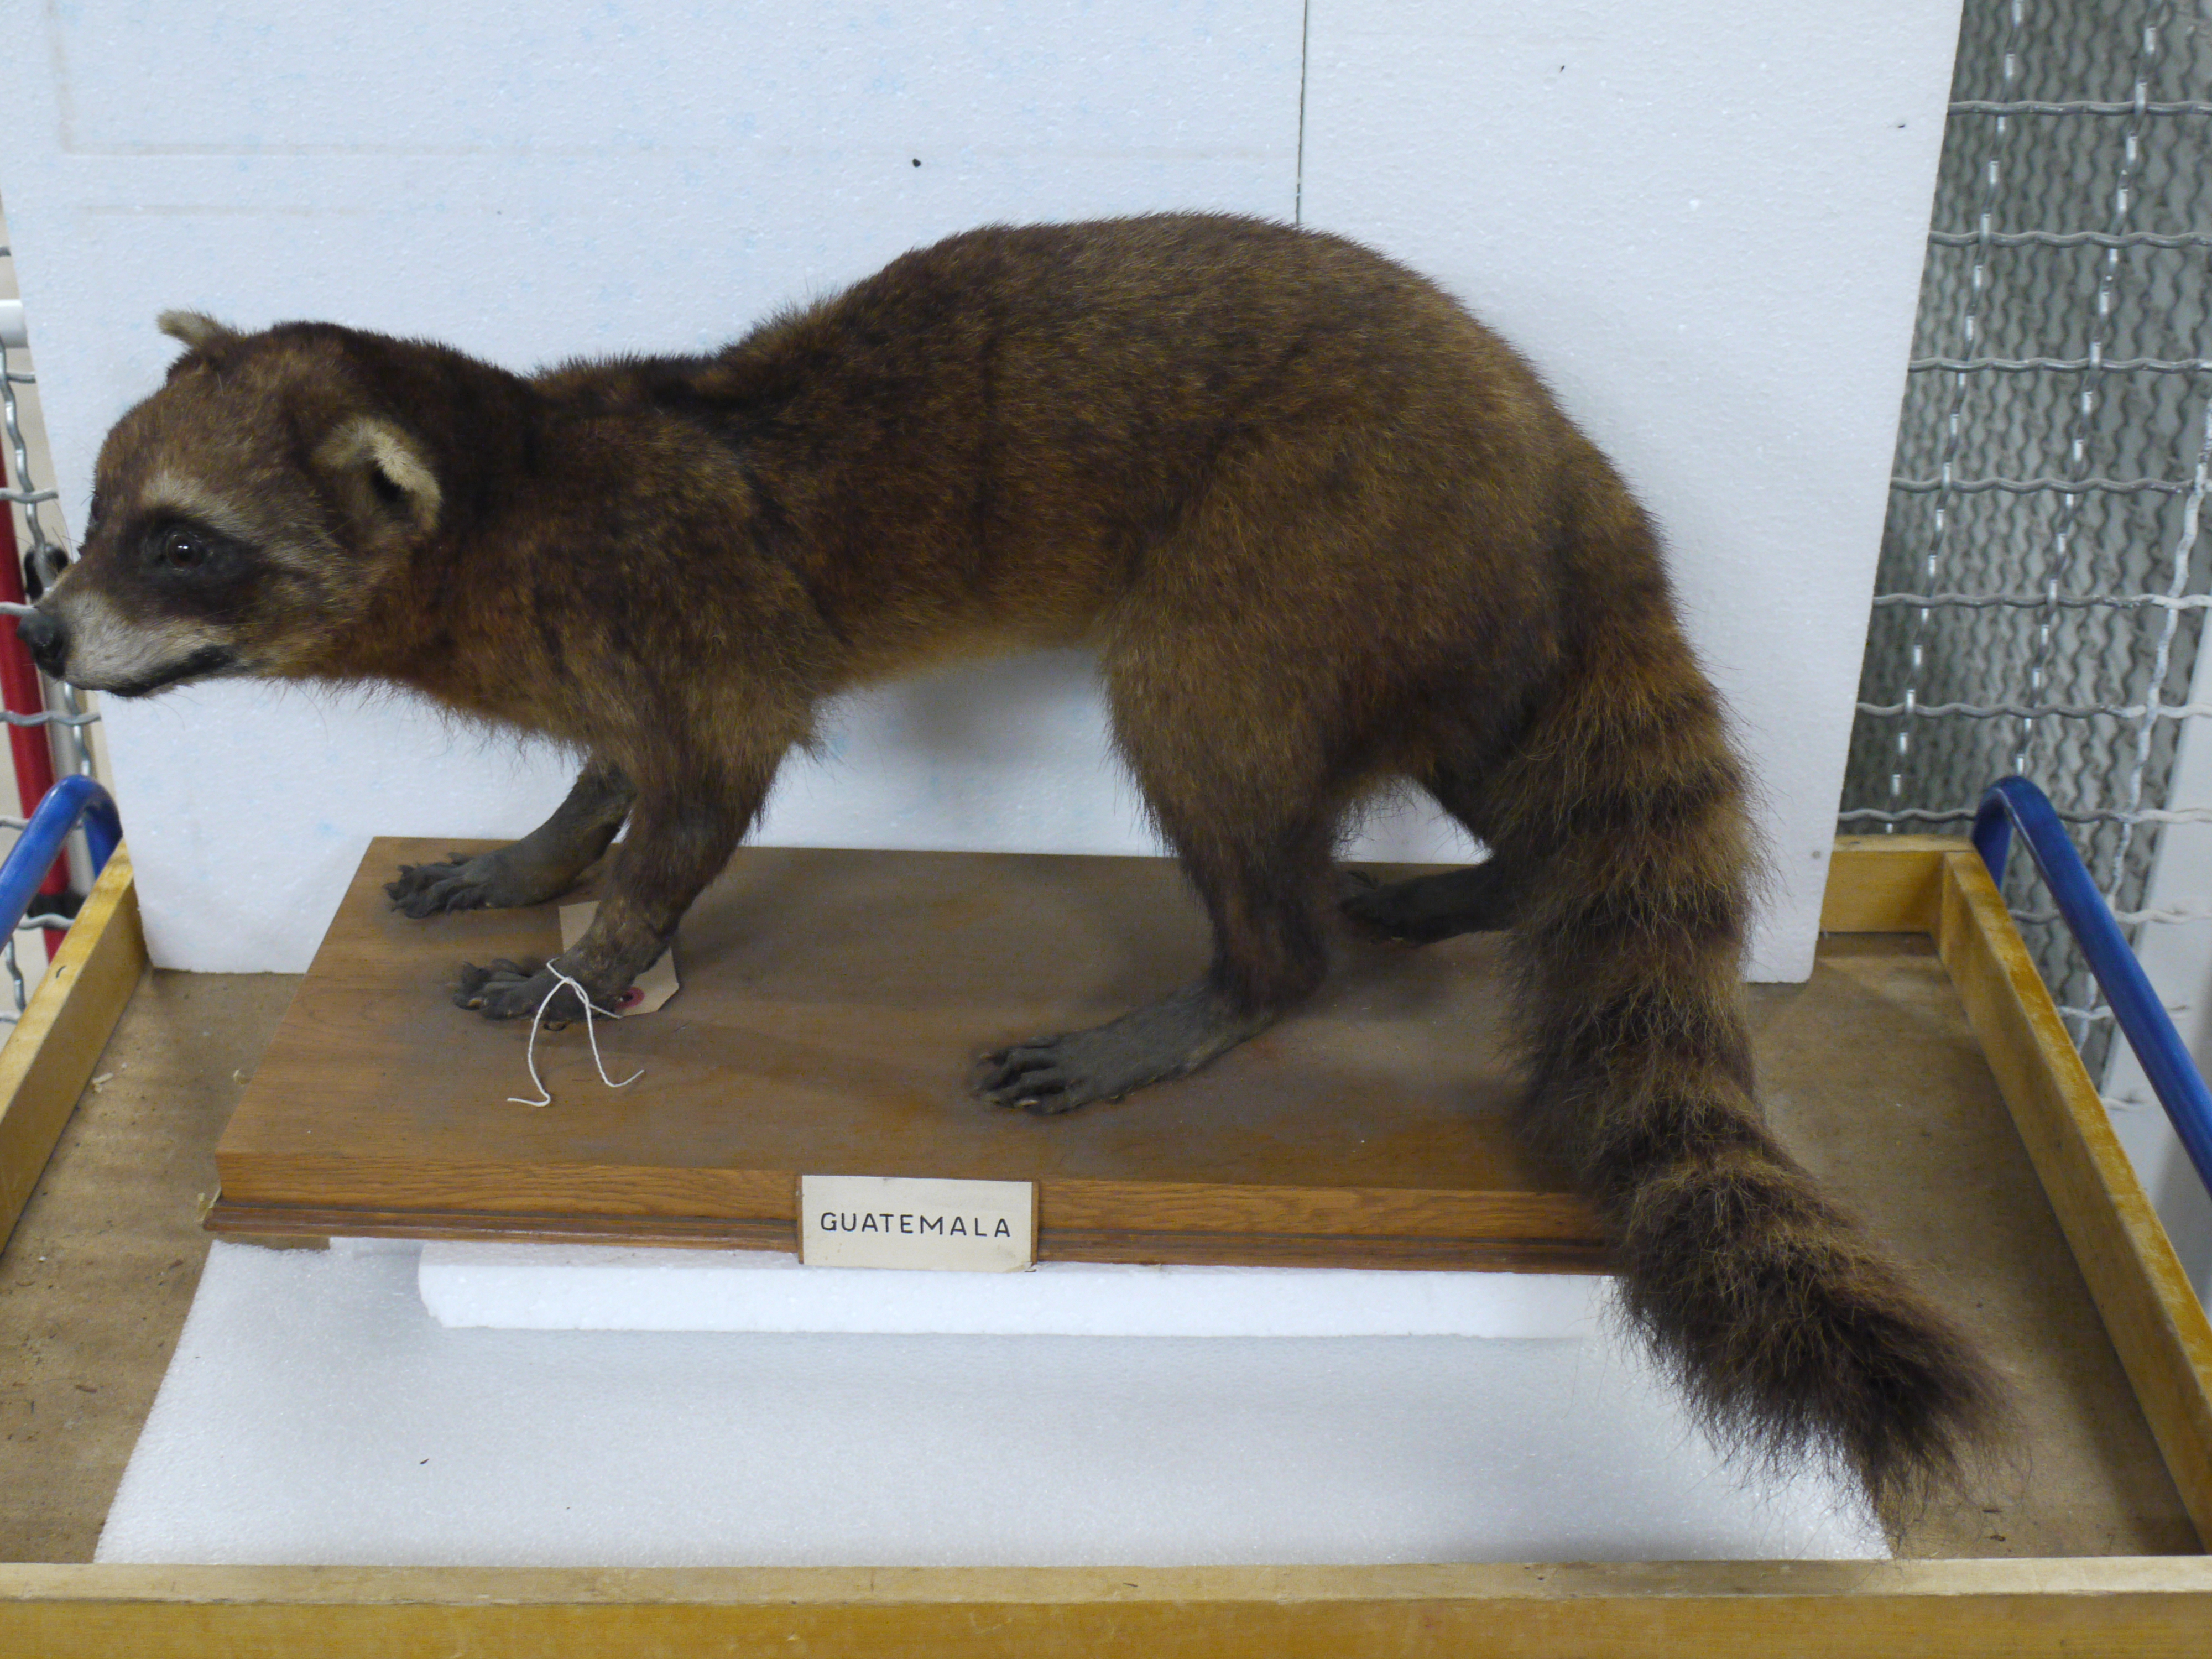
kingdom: Animalia
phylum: Chordata
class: Mammalia
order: Carnivora
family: Procyonidae
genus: Procyon
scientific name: Procyon cancrivorus
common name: Crab-eating raccoon
